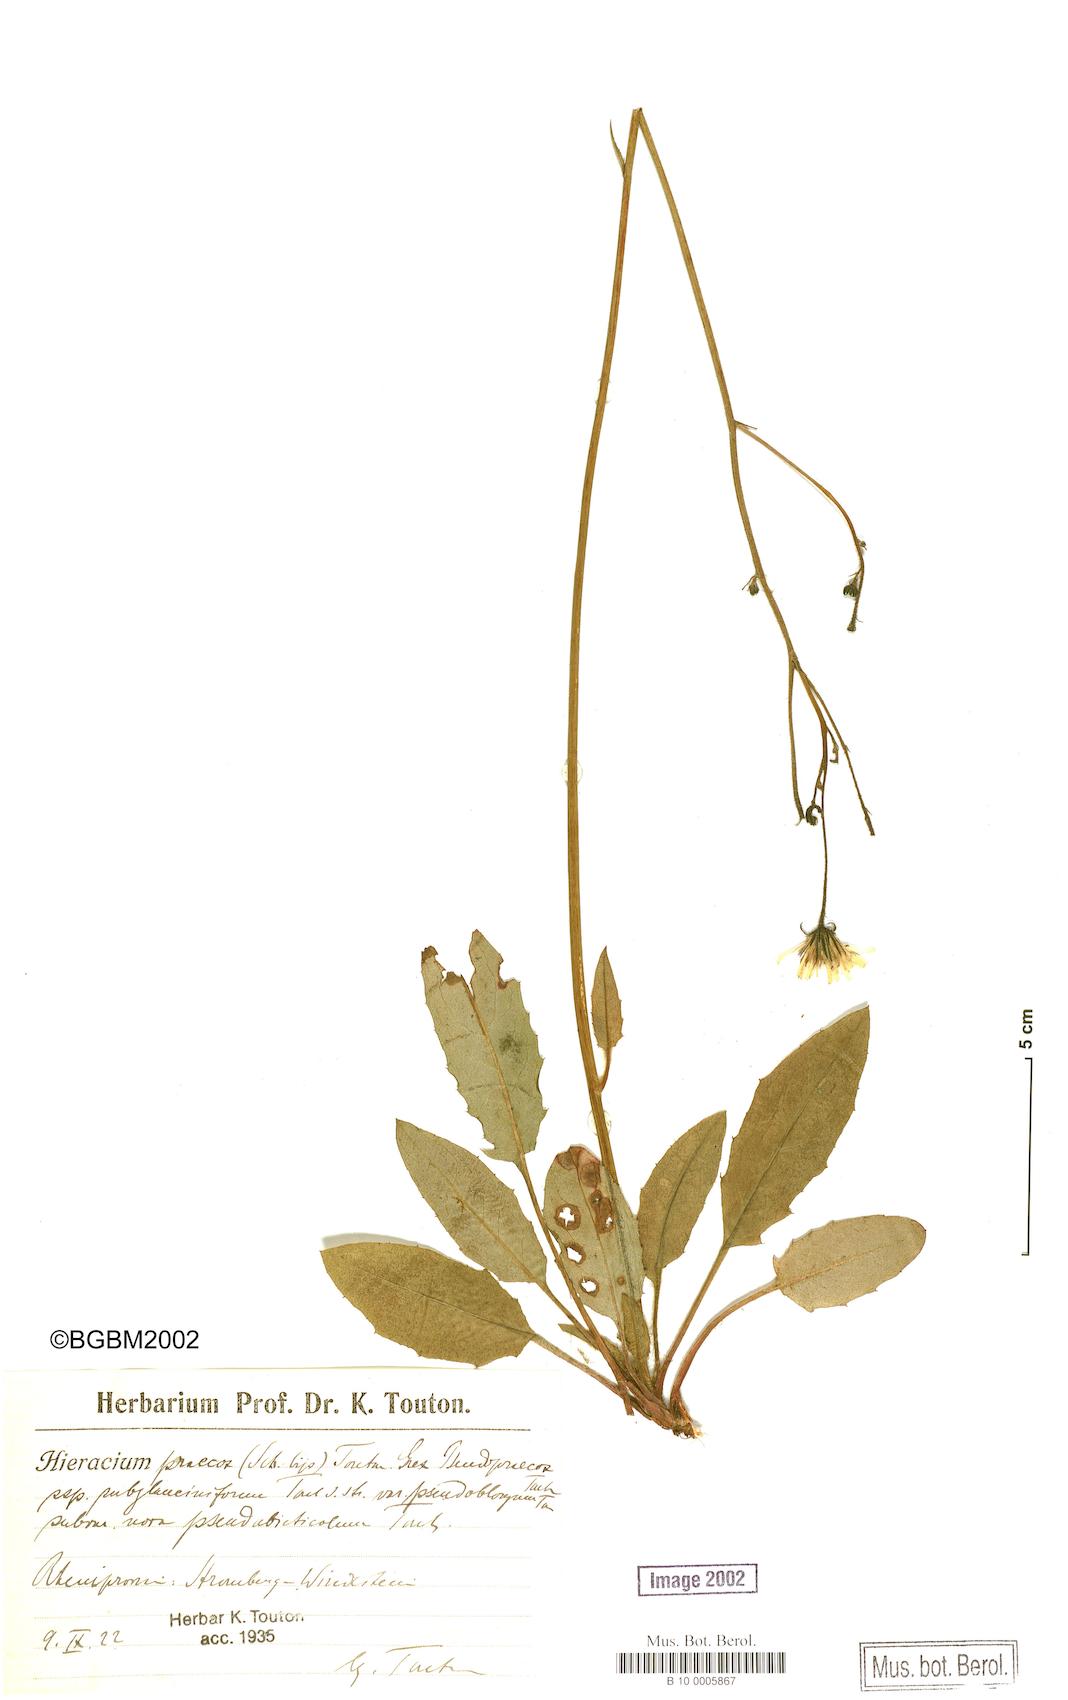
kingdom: Plantae
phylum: Tracheophyta
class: Magnoliopsida
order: Asterales
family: Asteraceae
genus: Hieracium
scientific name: Hieracium praecox
